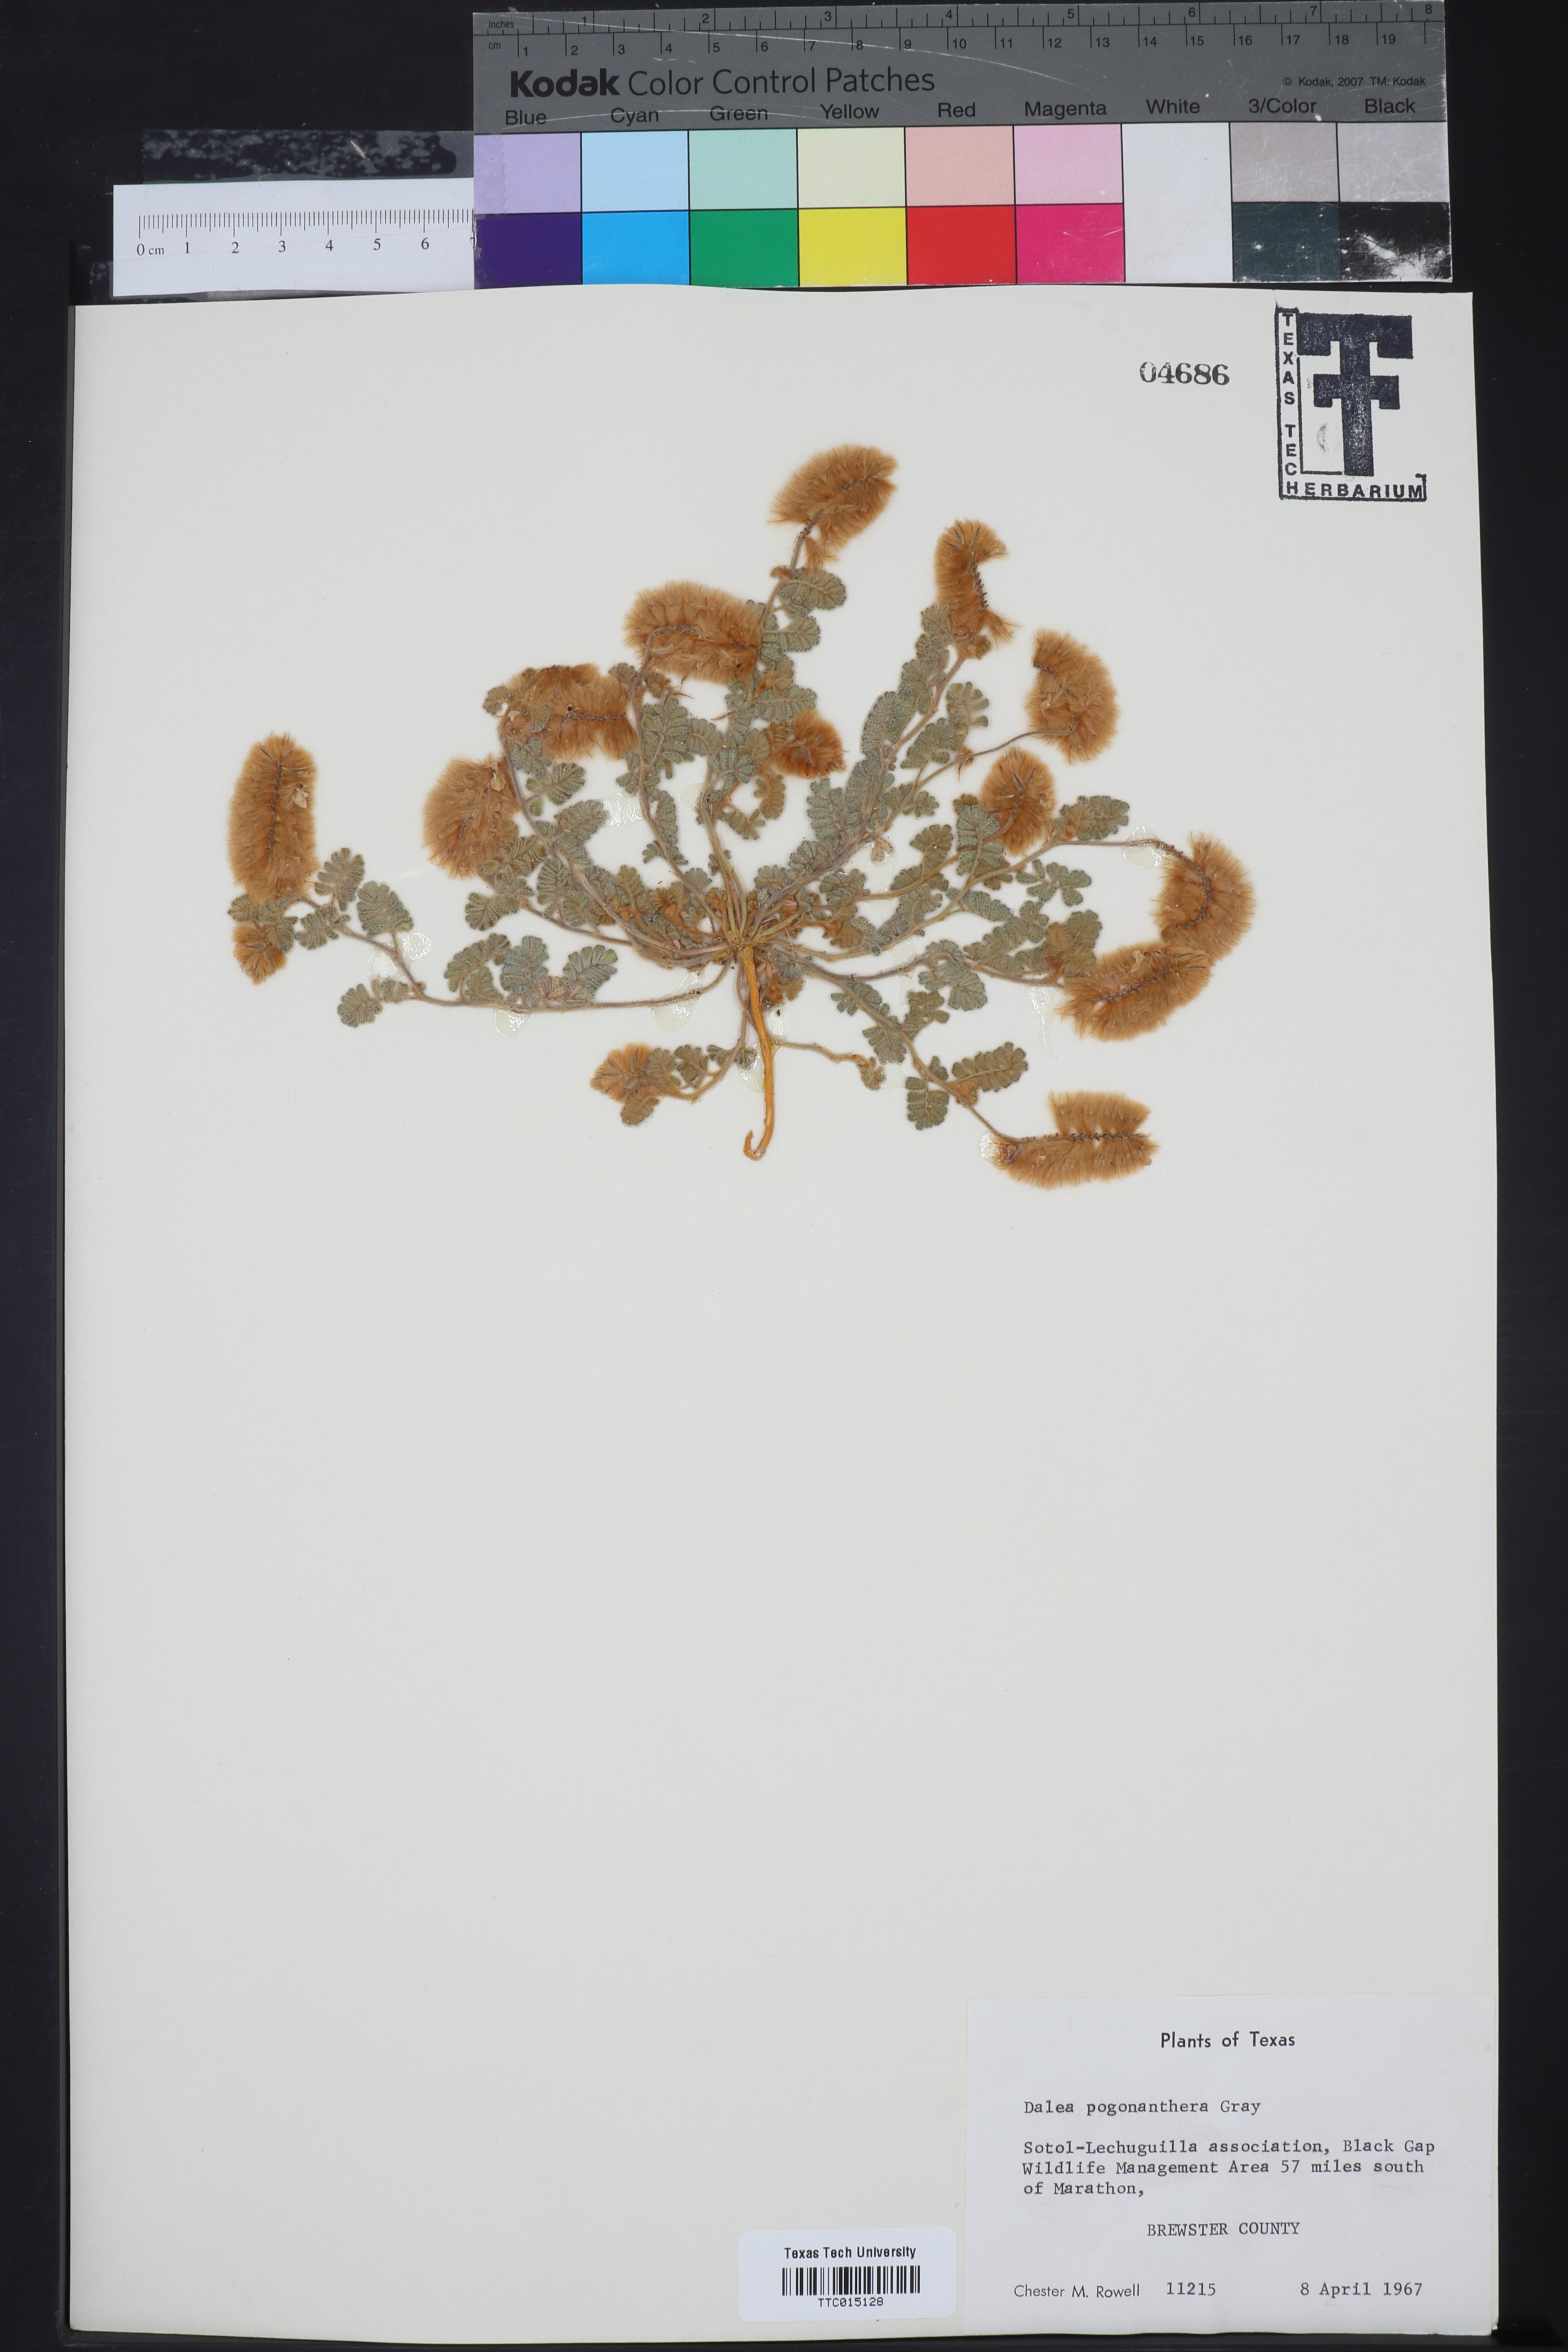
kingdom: Plantae
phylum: Tracheophyta
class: Magnoliopsida
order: Fabales
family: Fabaceae
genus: Dalea
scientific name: Dalea pogonathera
